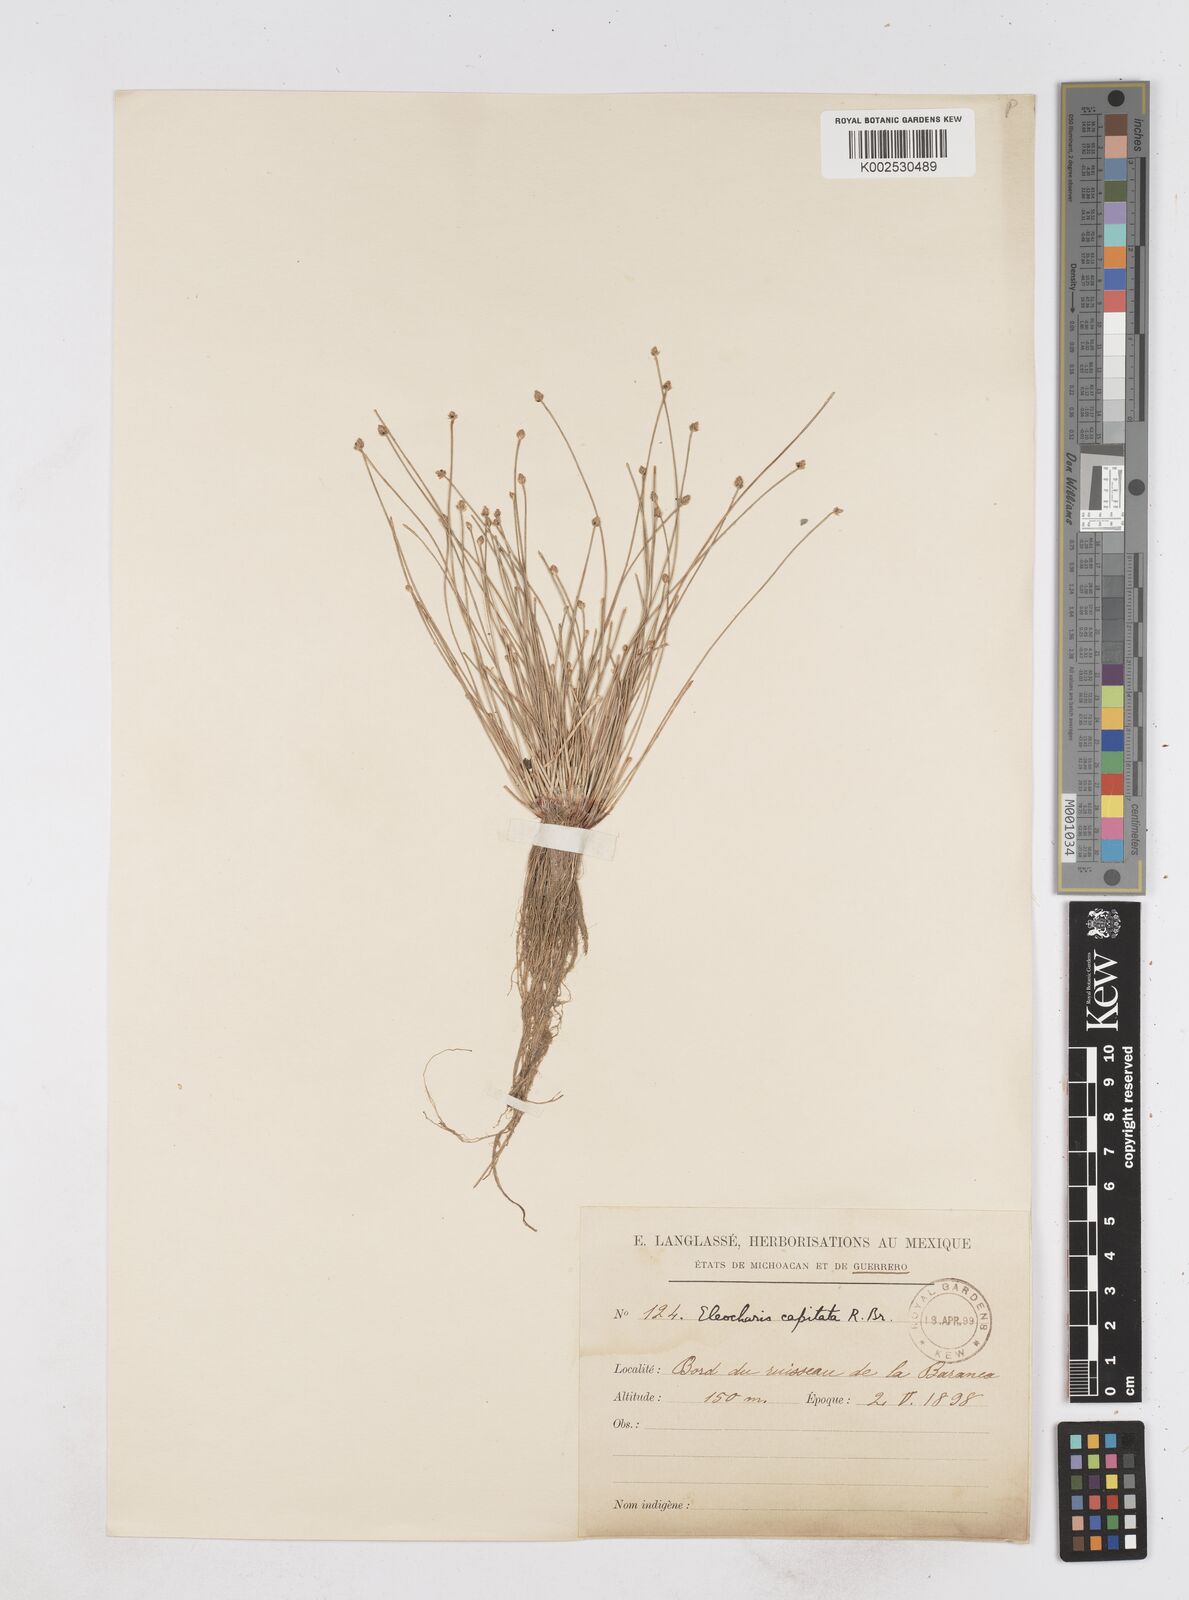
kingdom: Plantae
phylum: Tracheophyta
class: Liliopsida
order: Poales
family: Cyperaceae
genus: Eleocharis
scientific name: Eleocharis geniculata
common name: Canada spikesedge
